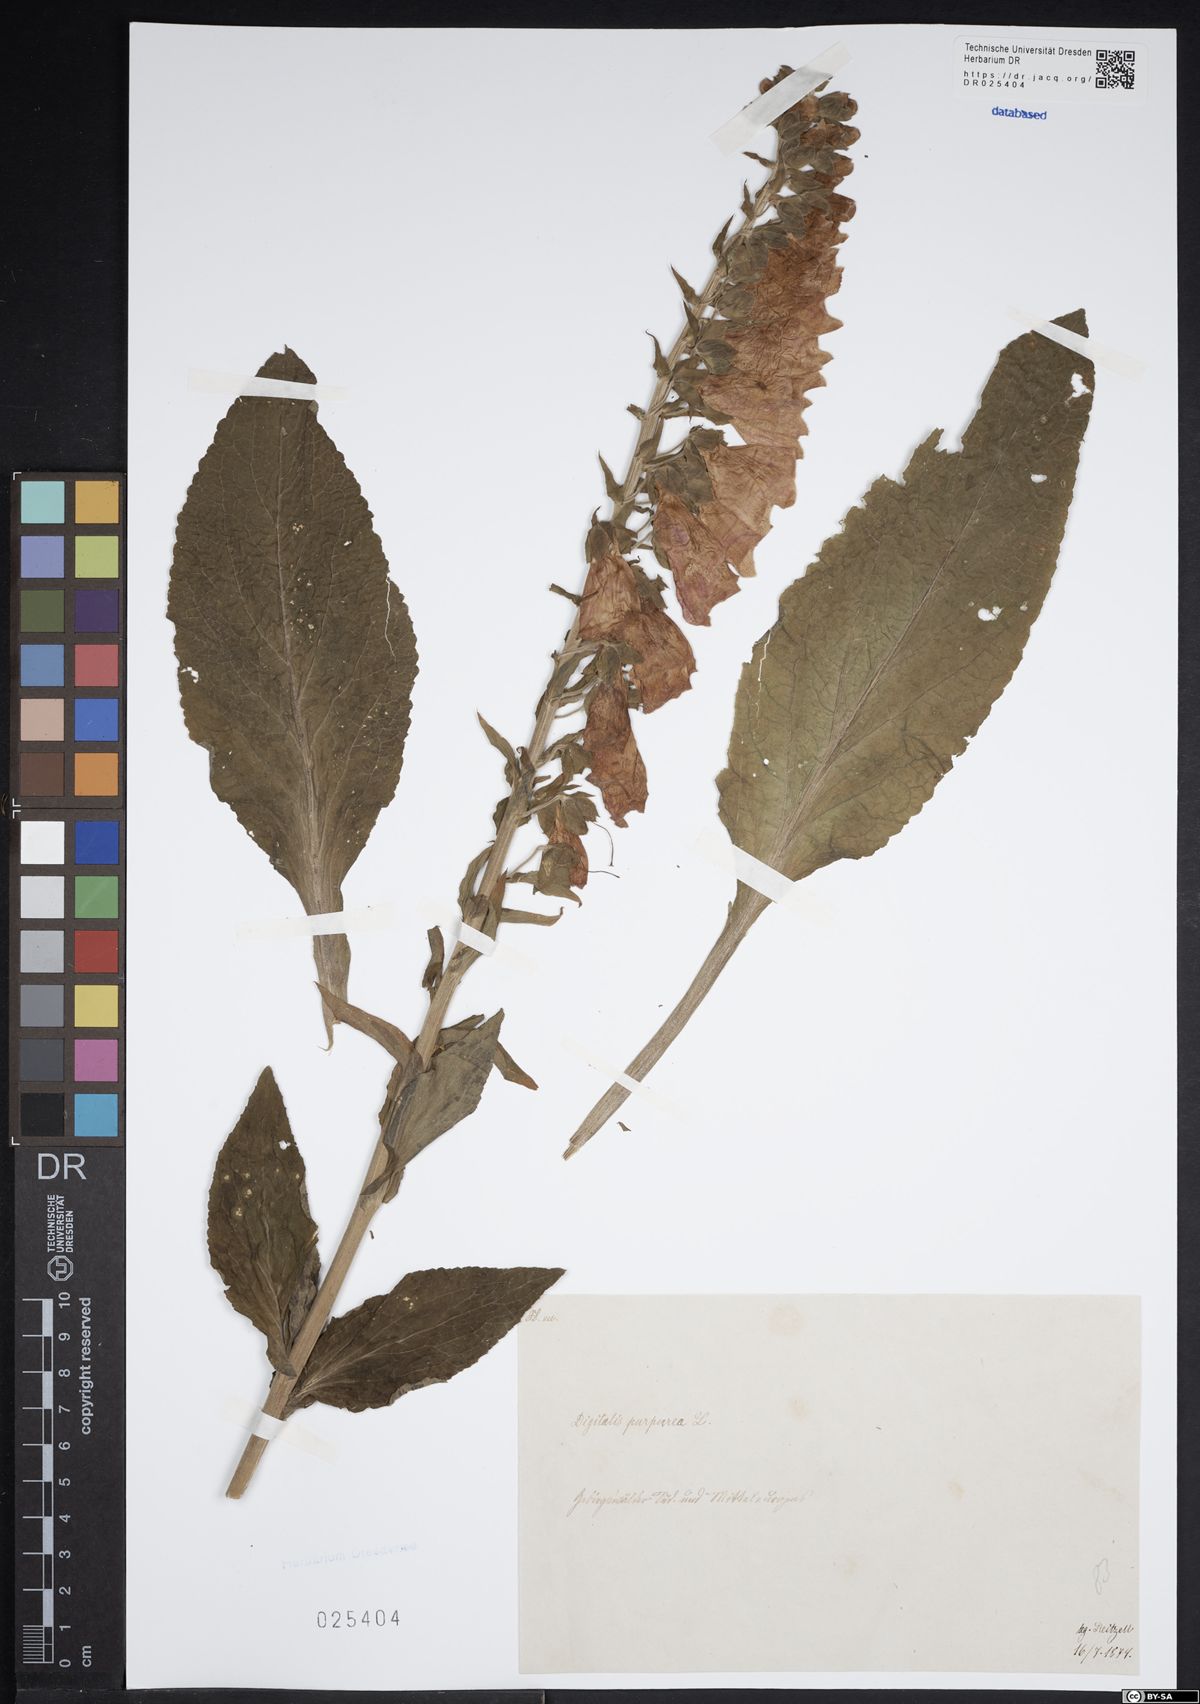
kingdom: Plantae
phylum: Tracheophyta
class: Magnoliopsida
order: Lamiales
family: Plantaginaceae
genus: Digitalis
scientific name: Digitalis purpurea
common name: Foxglove
